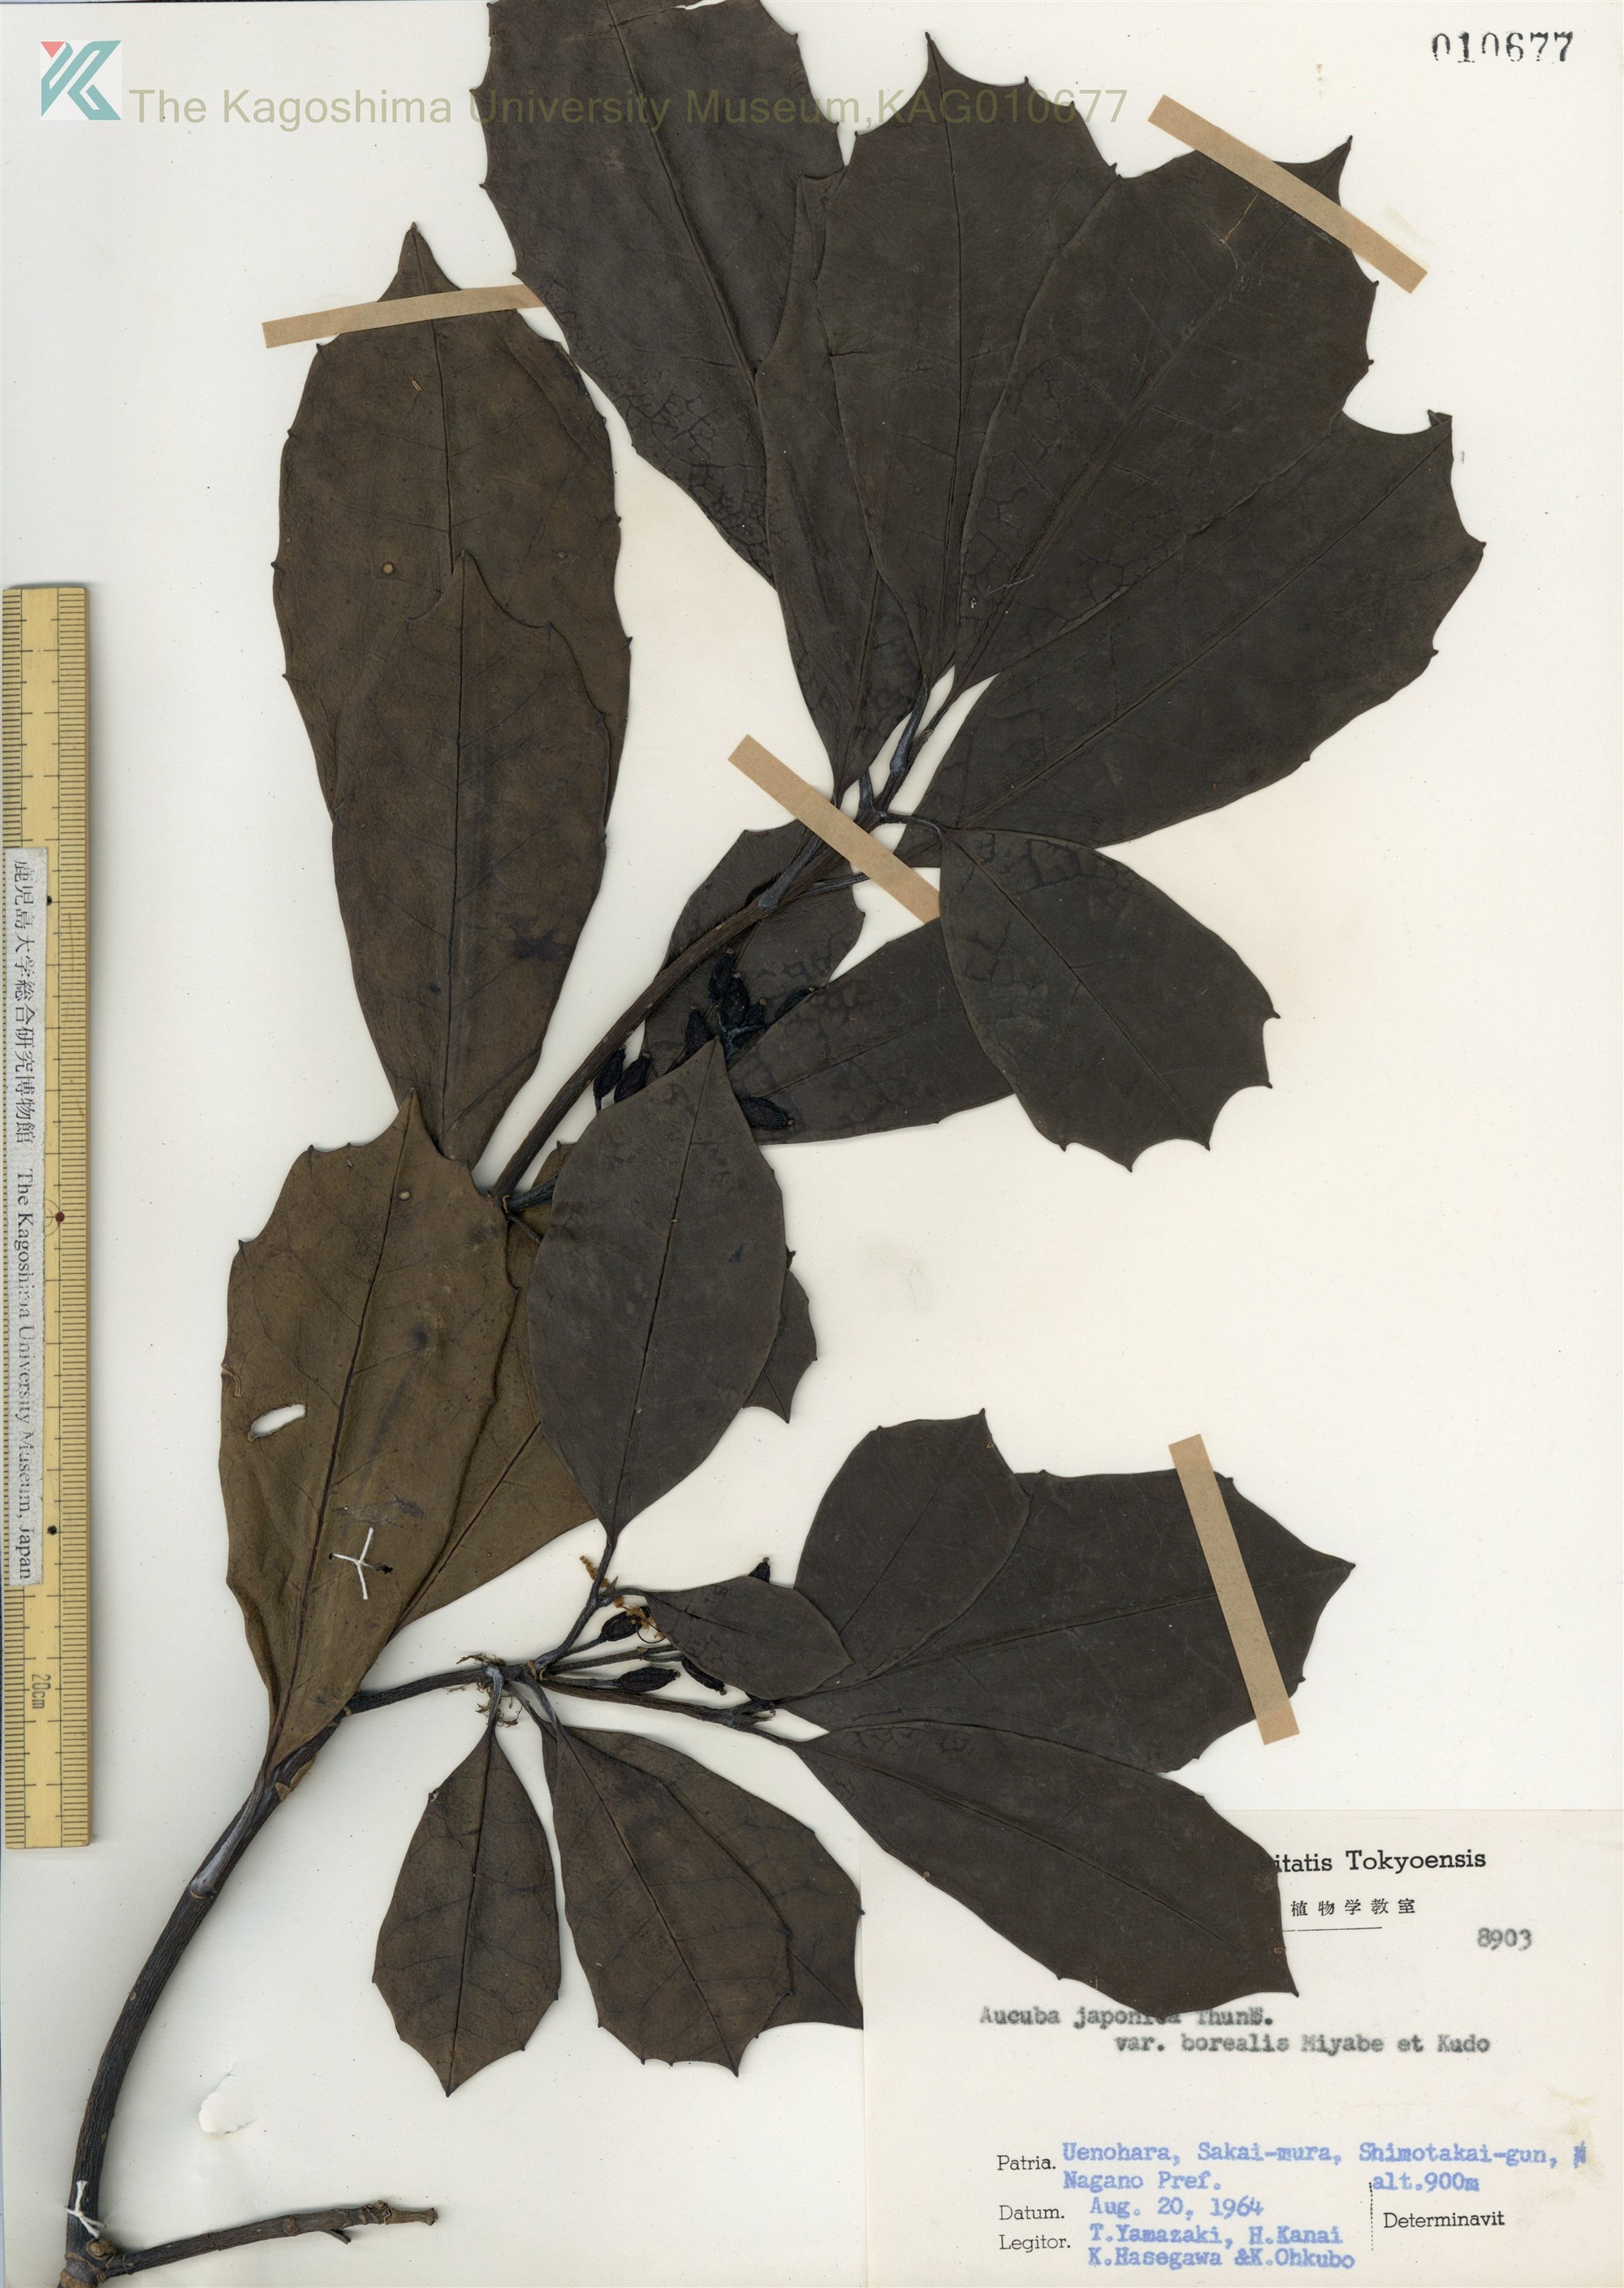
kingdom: Plantae
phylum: Tracheophyta
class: Magnoliopsida
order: Garryales
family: Garryaceae
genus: Aucuba
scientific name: Aucuba japonica
